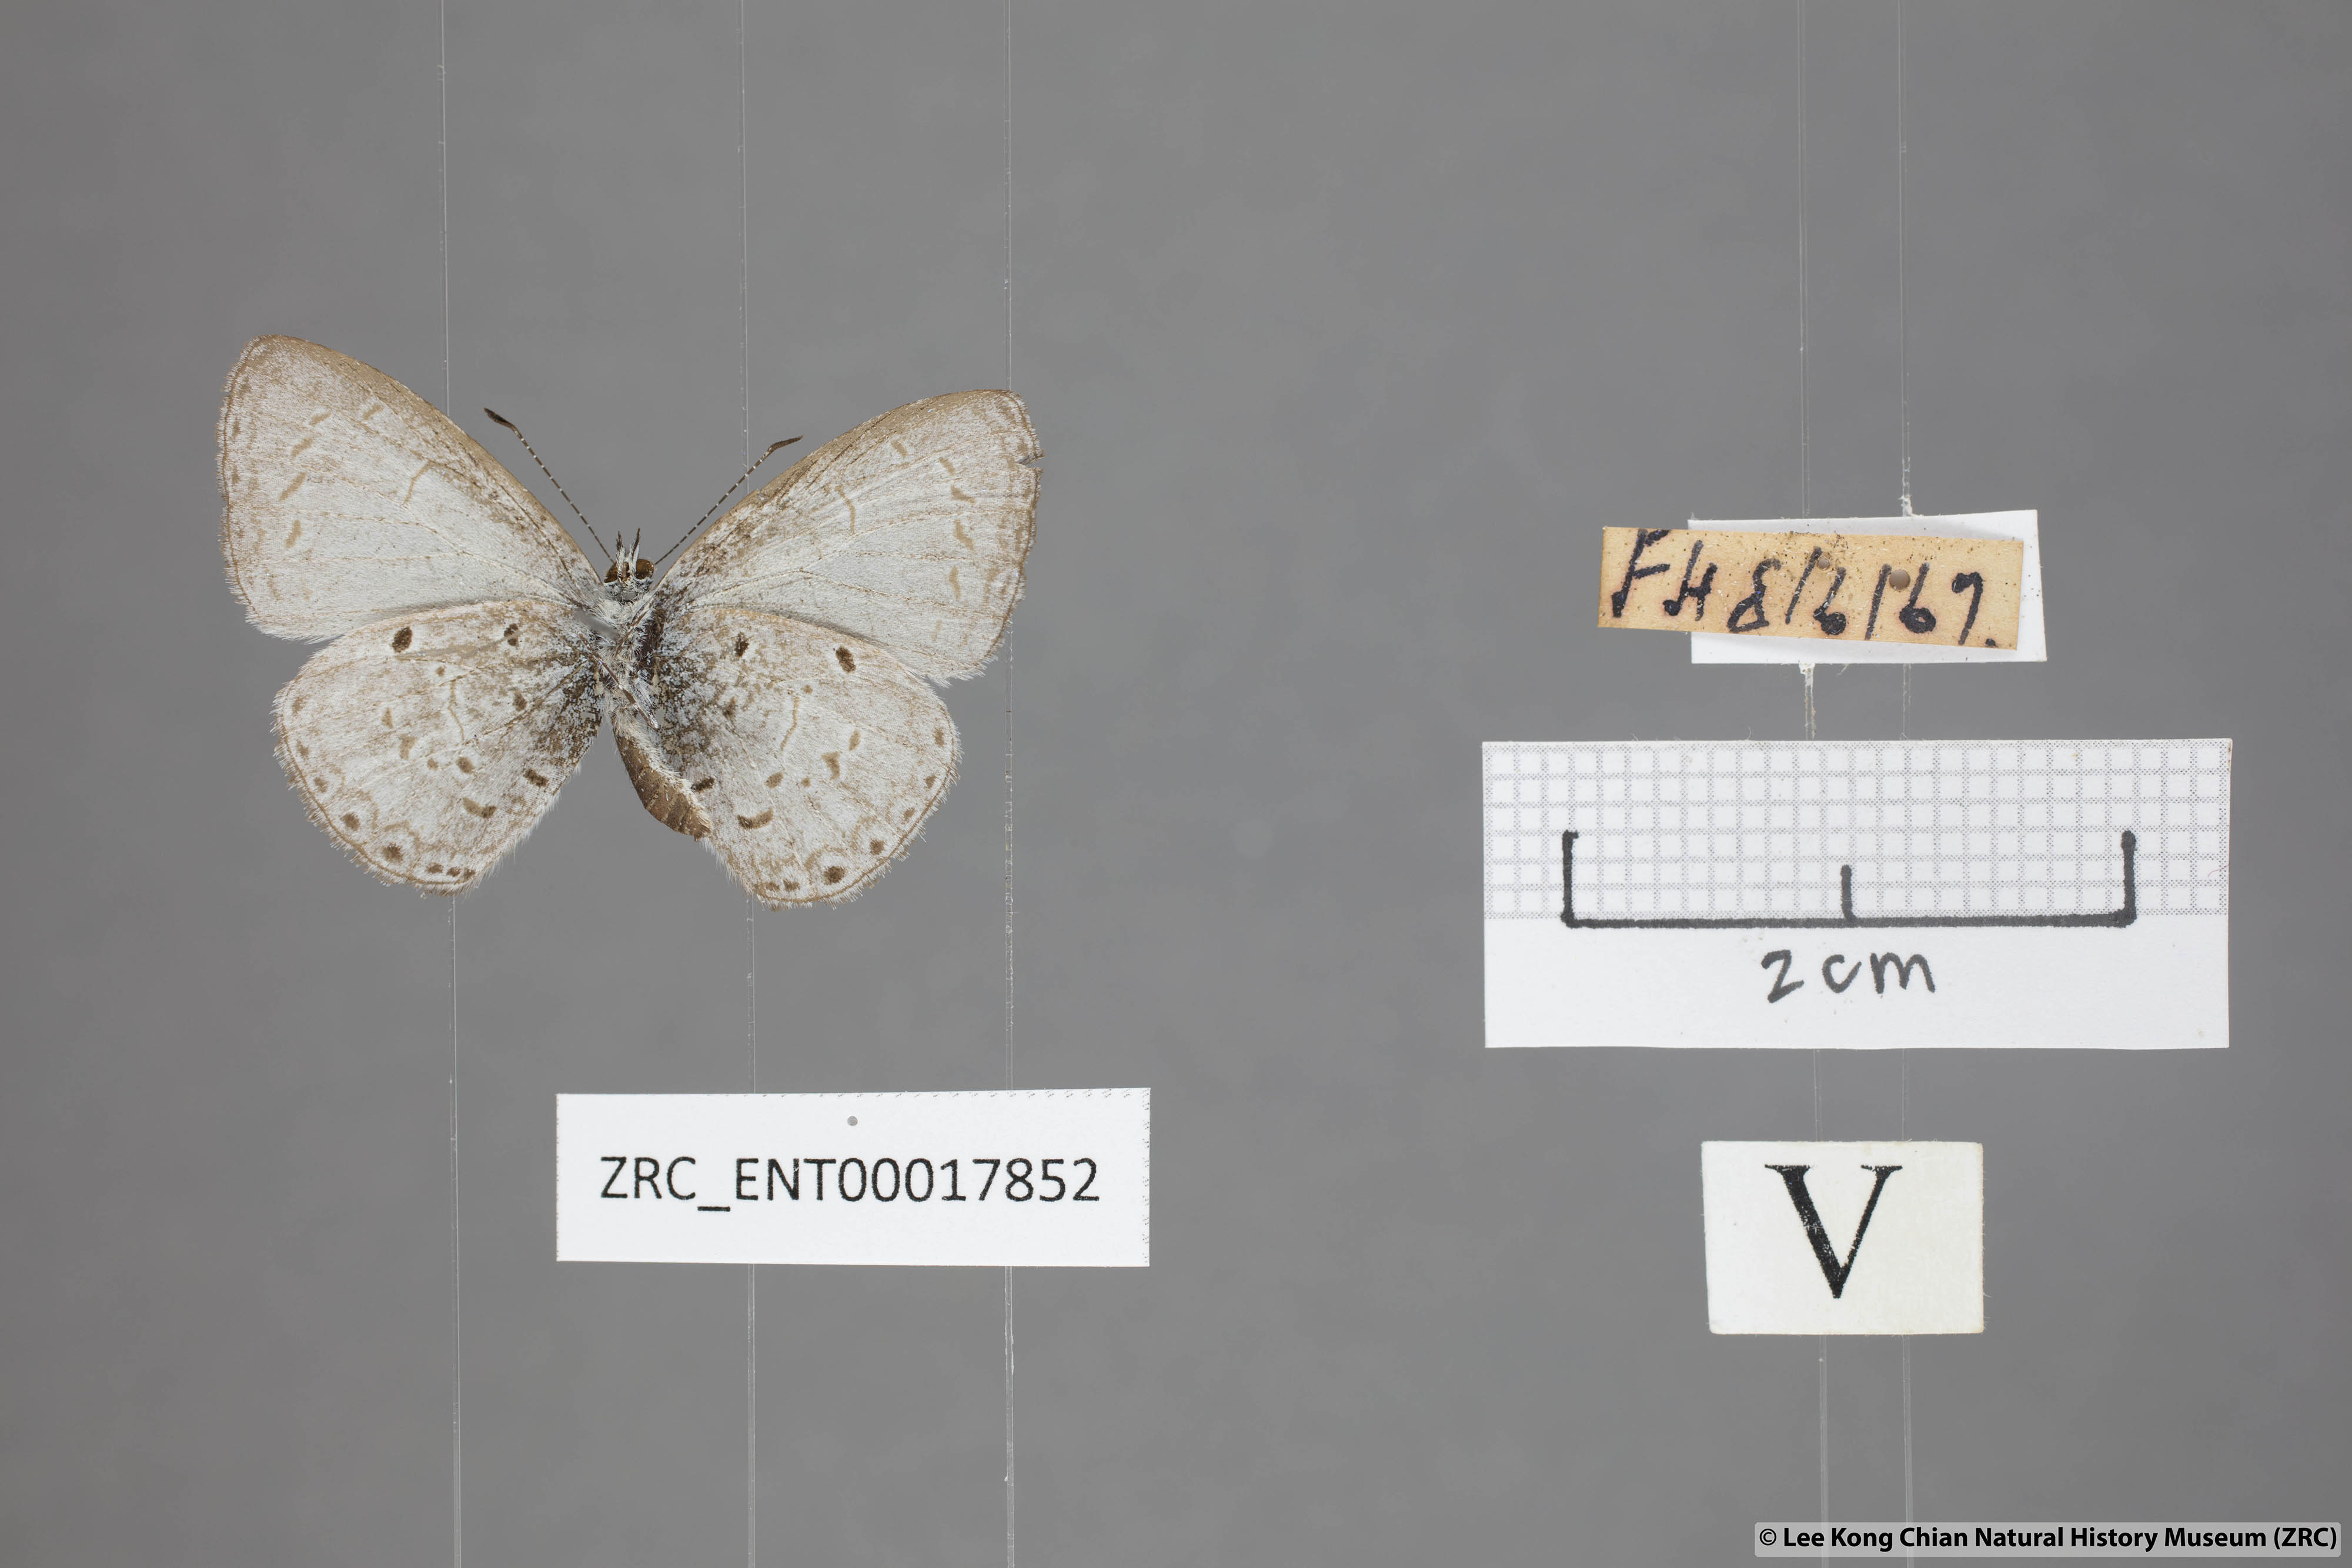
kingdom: Animalia
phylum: Arthropoda
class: Insecta
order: Lepidoptera
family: Lycaenidae
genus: Udara
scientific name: Udara
